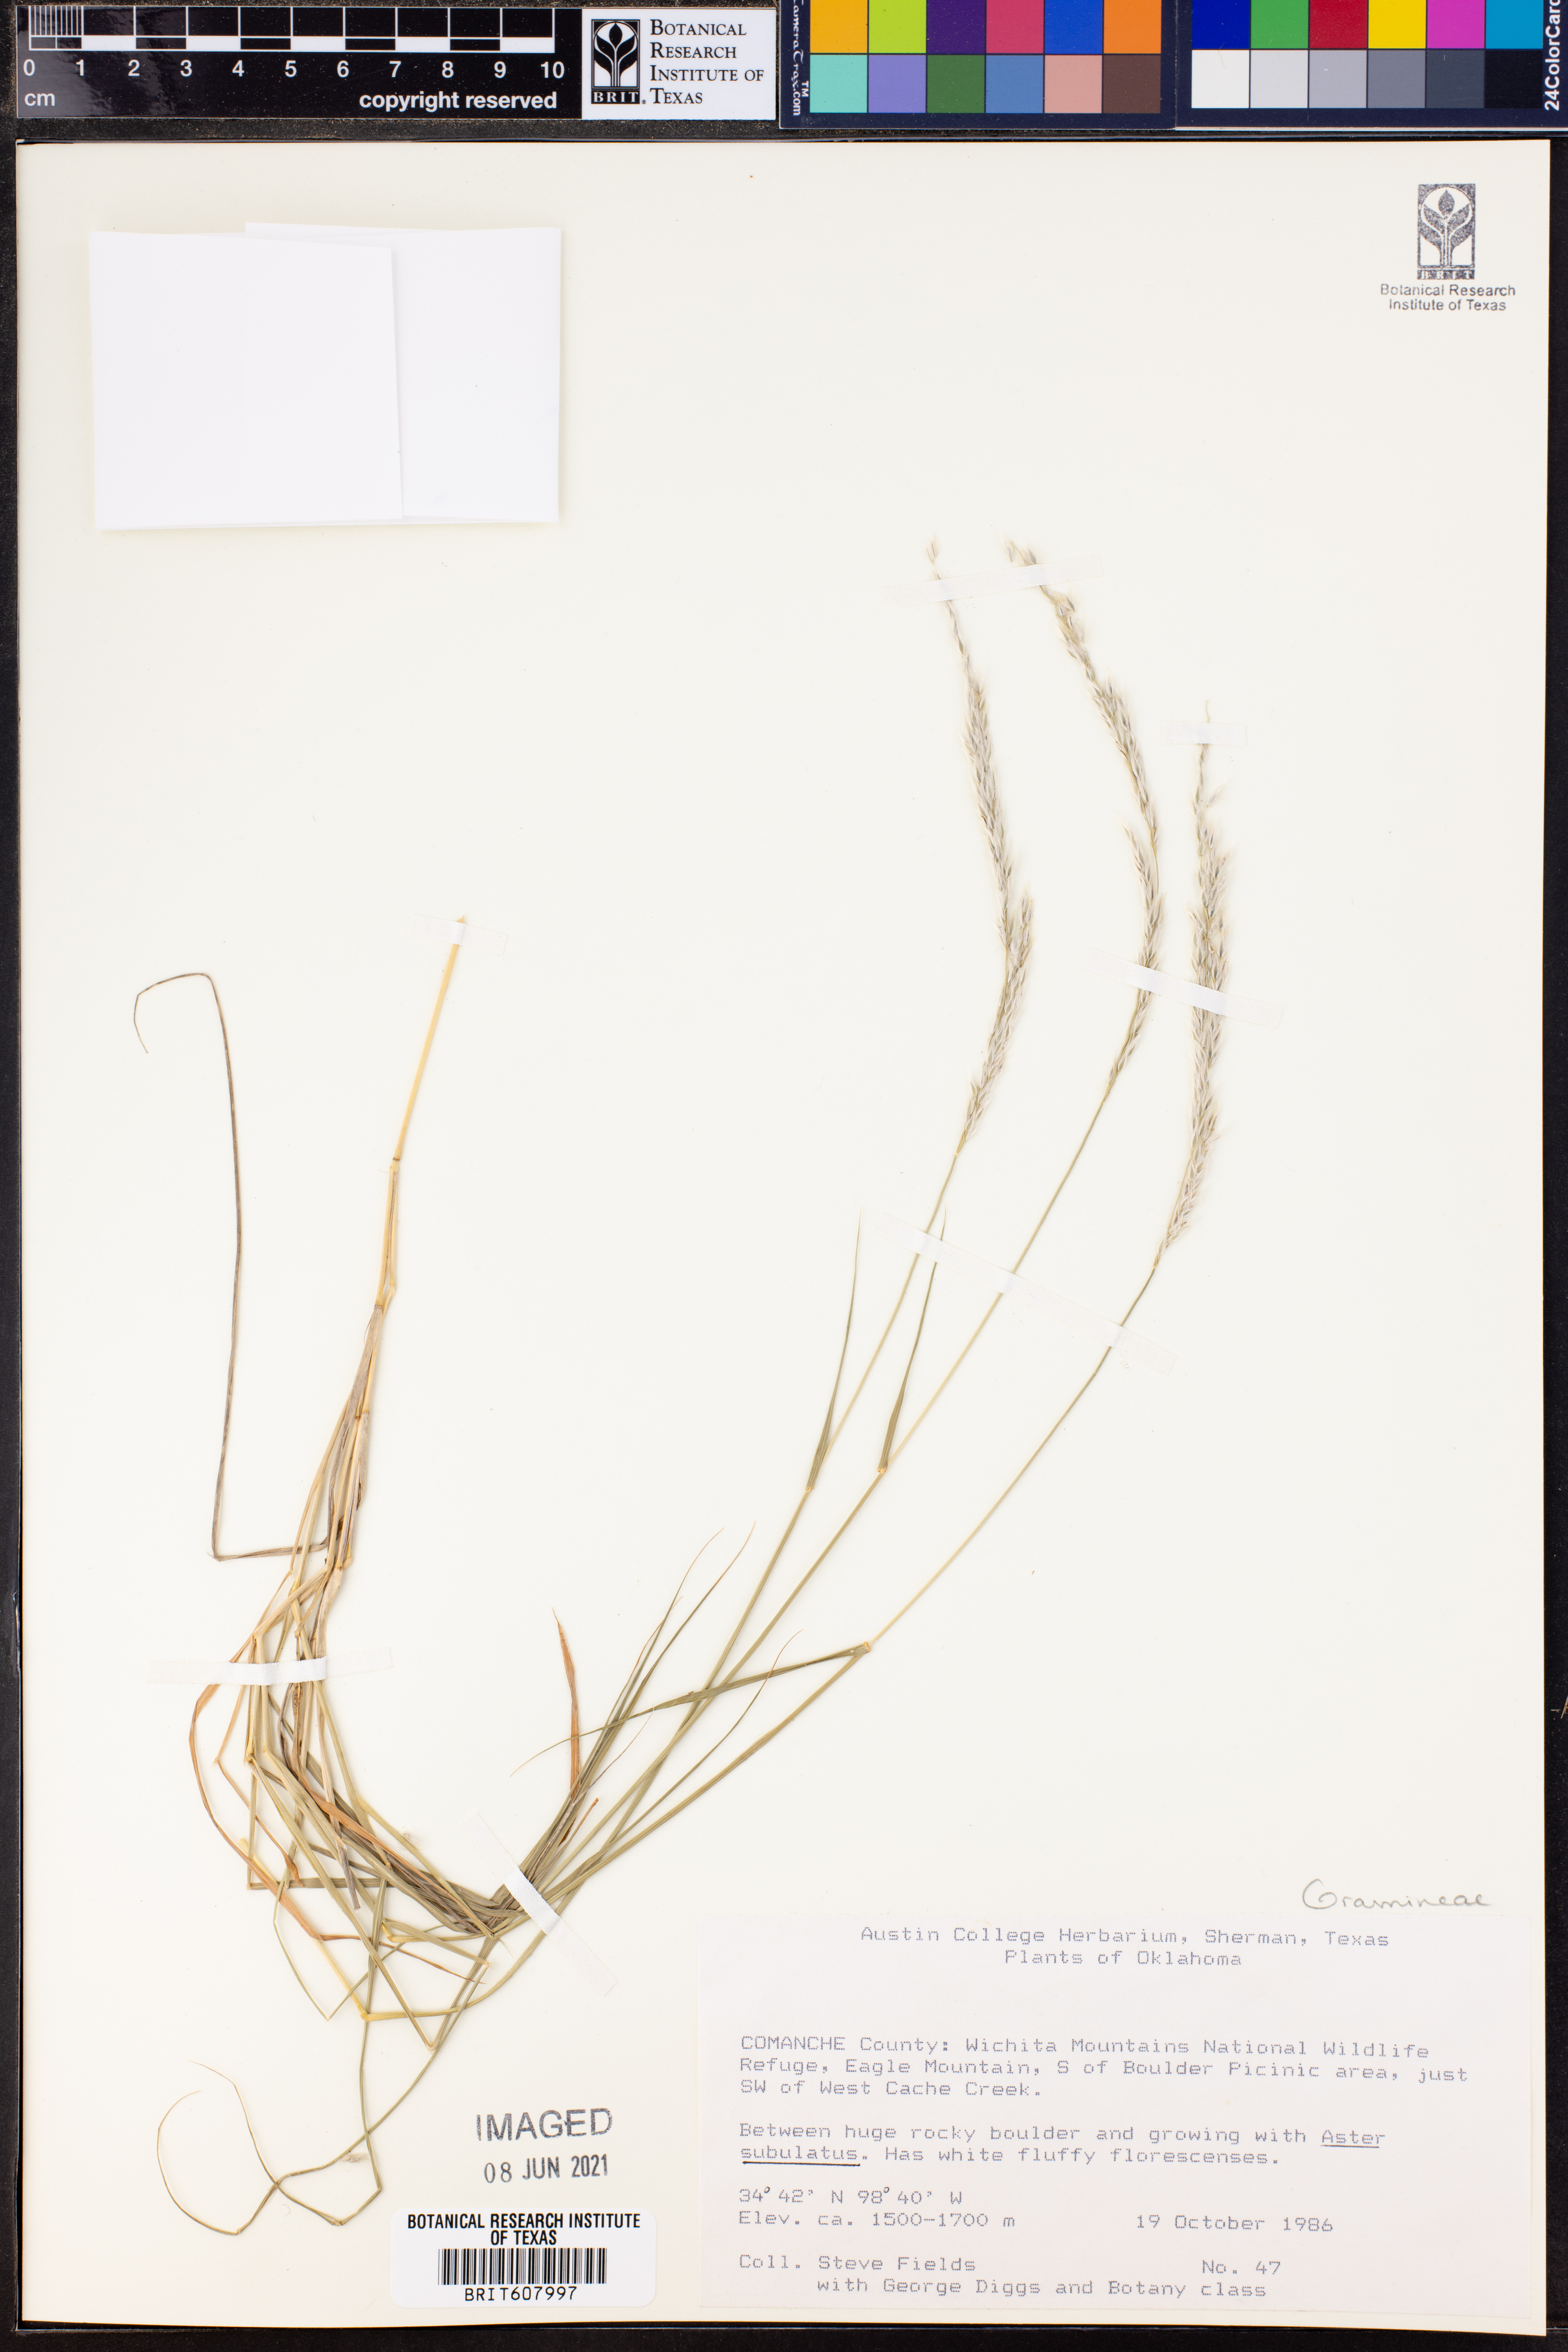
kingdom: Plantae
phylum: Tracheophyta
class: Liliopsida
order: Poales
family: Poaceae
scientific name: Poaceae
